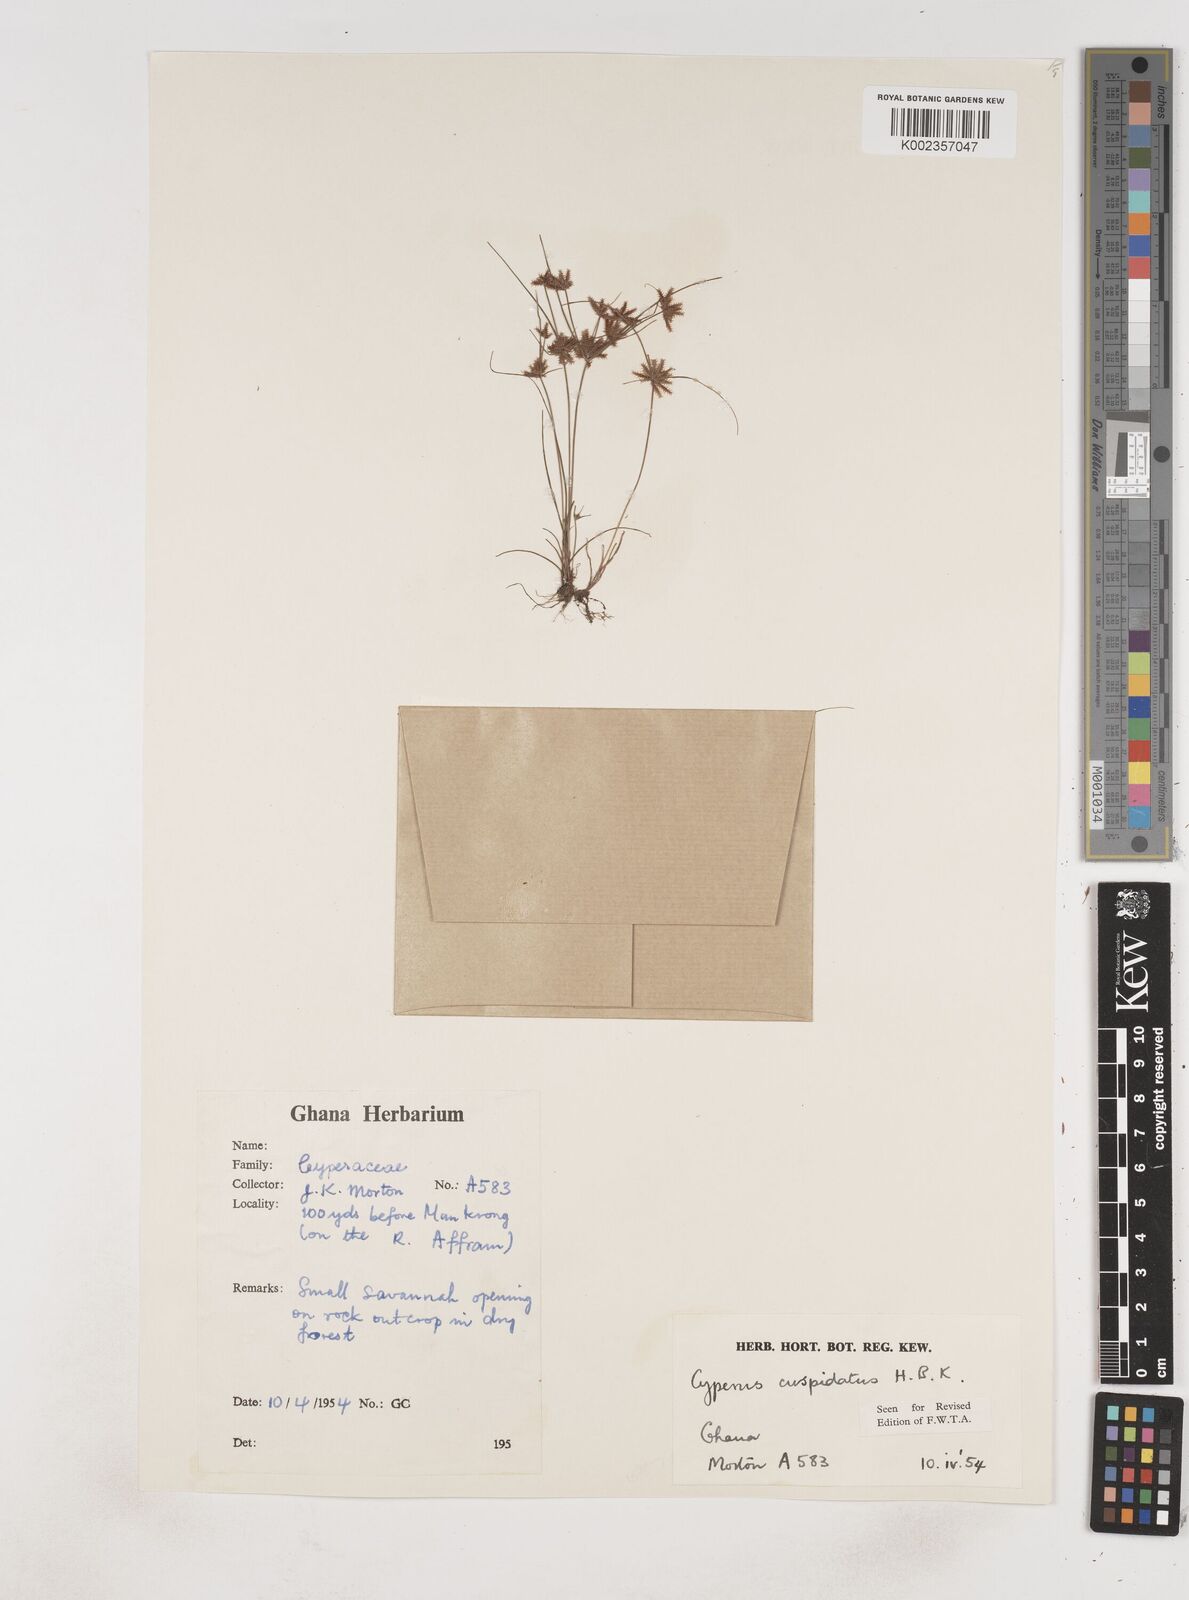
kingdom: Plantae
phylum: Tracheophyta
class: Liliopsida
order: Poales
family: Cyperaceae
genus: Cyperus
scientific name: Cyperus
